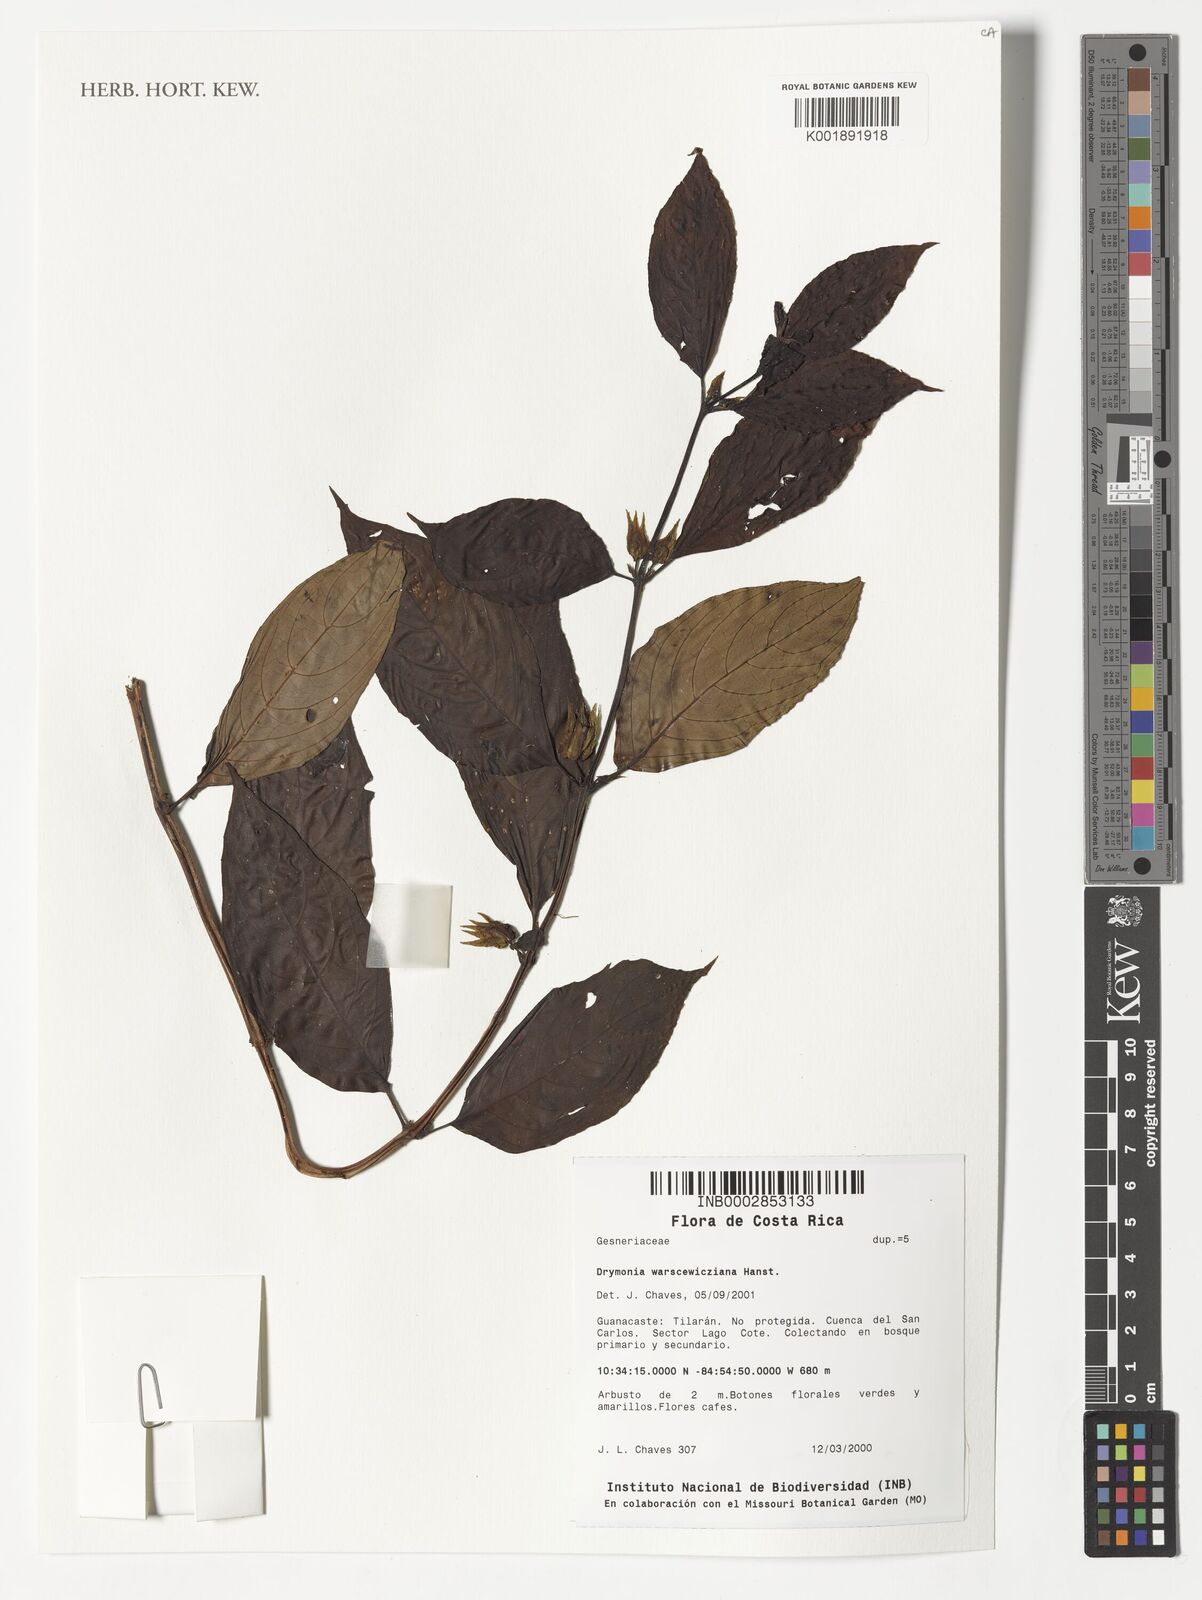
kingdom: Plantae
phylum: Tracheophyta
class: Magnoliopsida
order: Lamiales
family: Gesneriaceae
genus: Drymonia
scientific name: Drymonia warszewicziana
